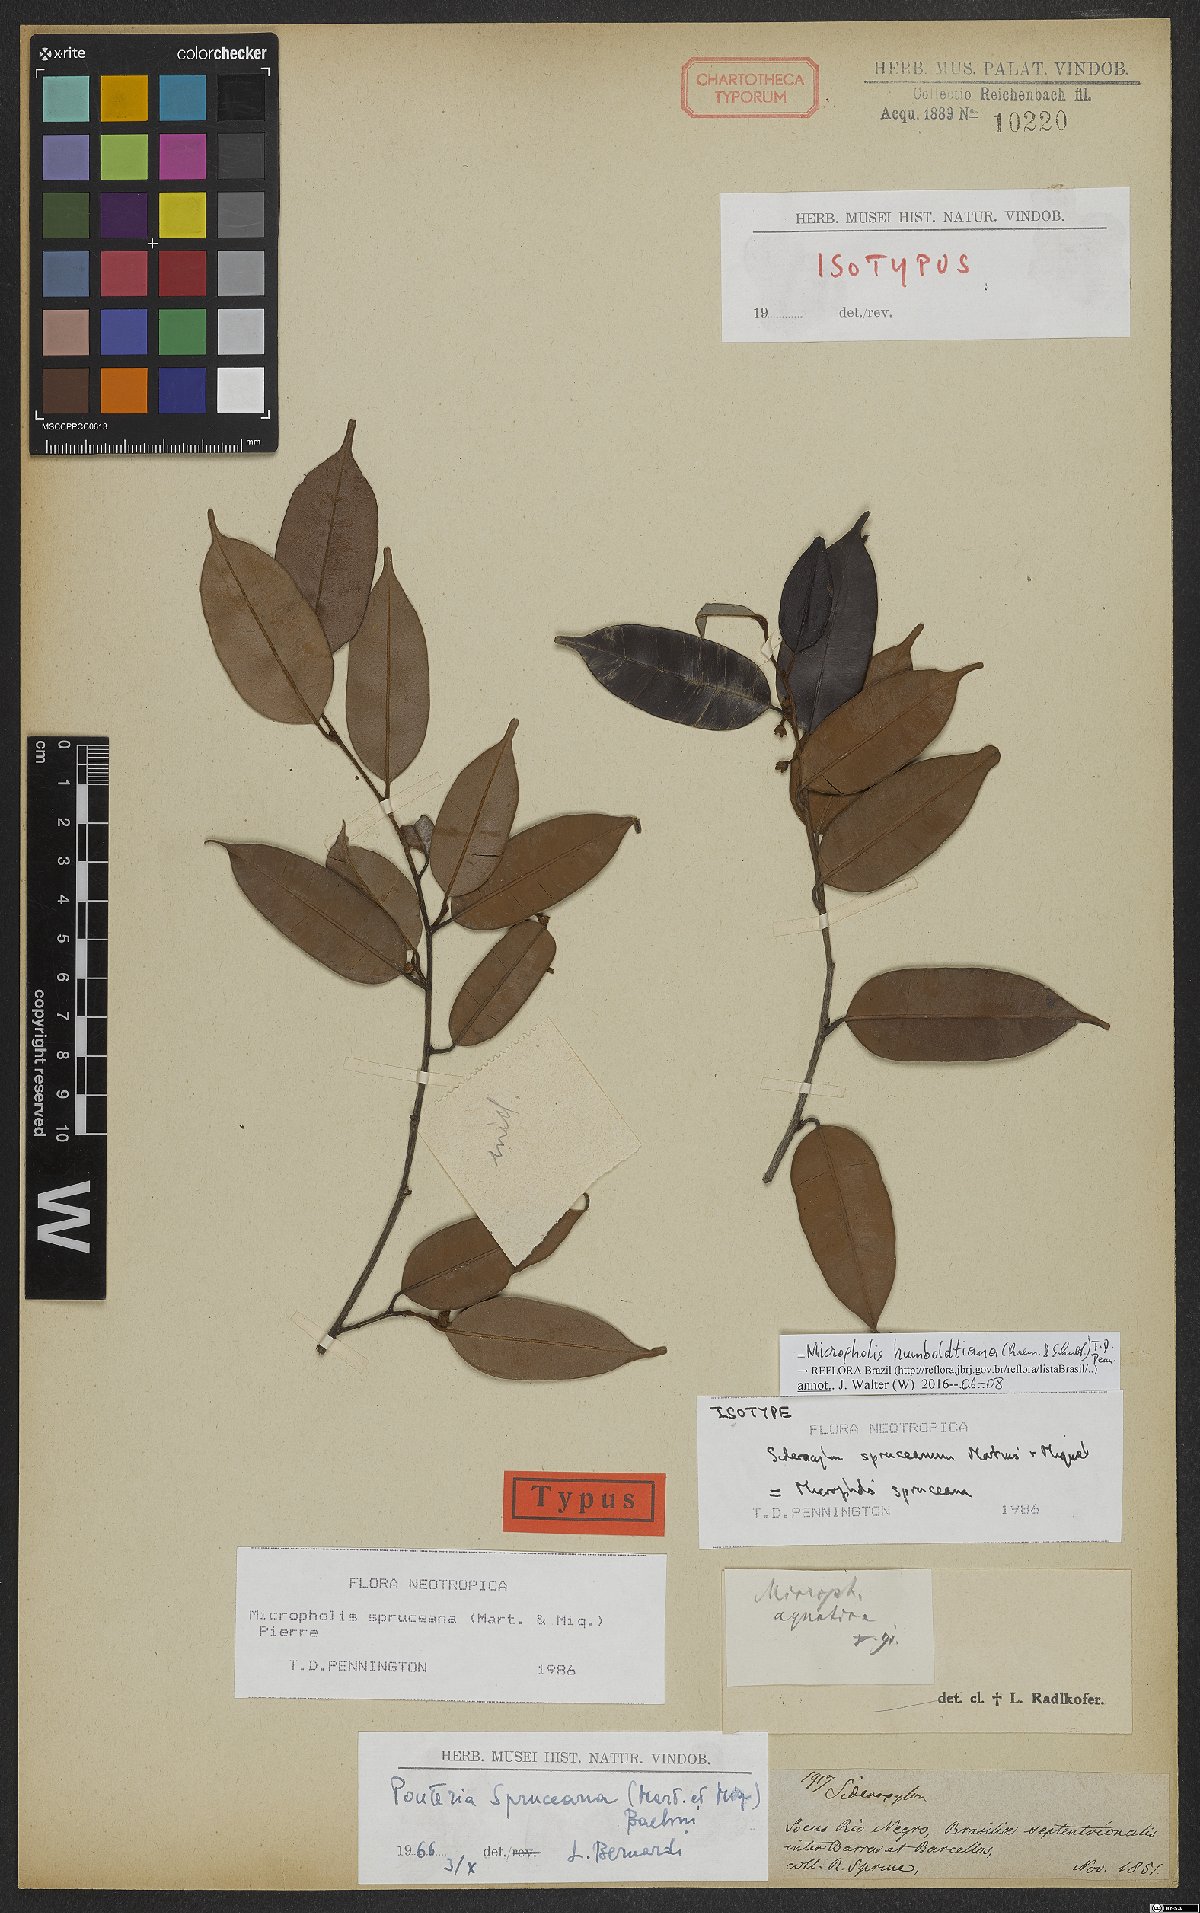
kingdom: Plantae
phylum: Tracheophyta
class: Magnoliopsida
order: Ericales
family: Sapotaceae
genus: Micropholis
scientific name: Micropholis humboldtiana
